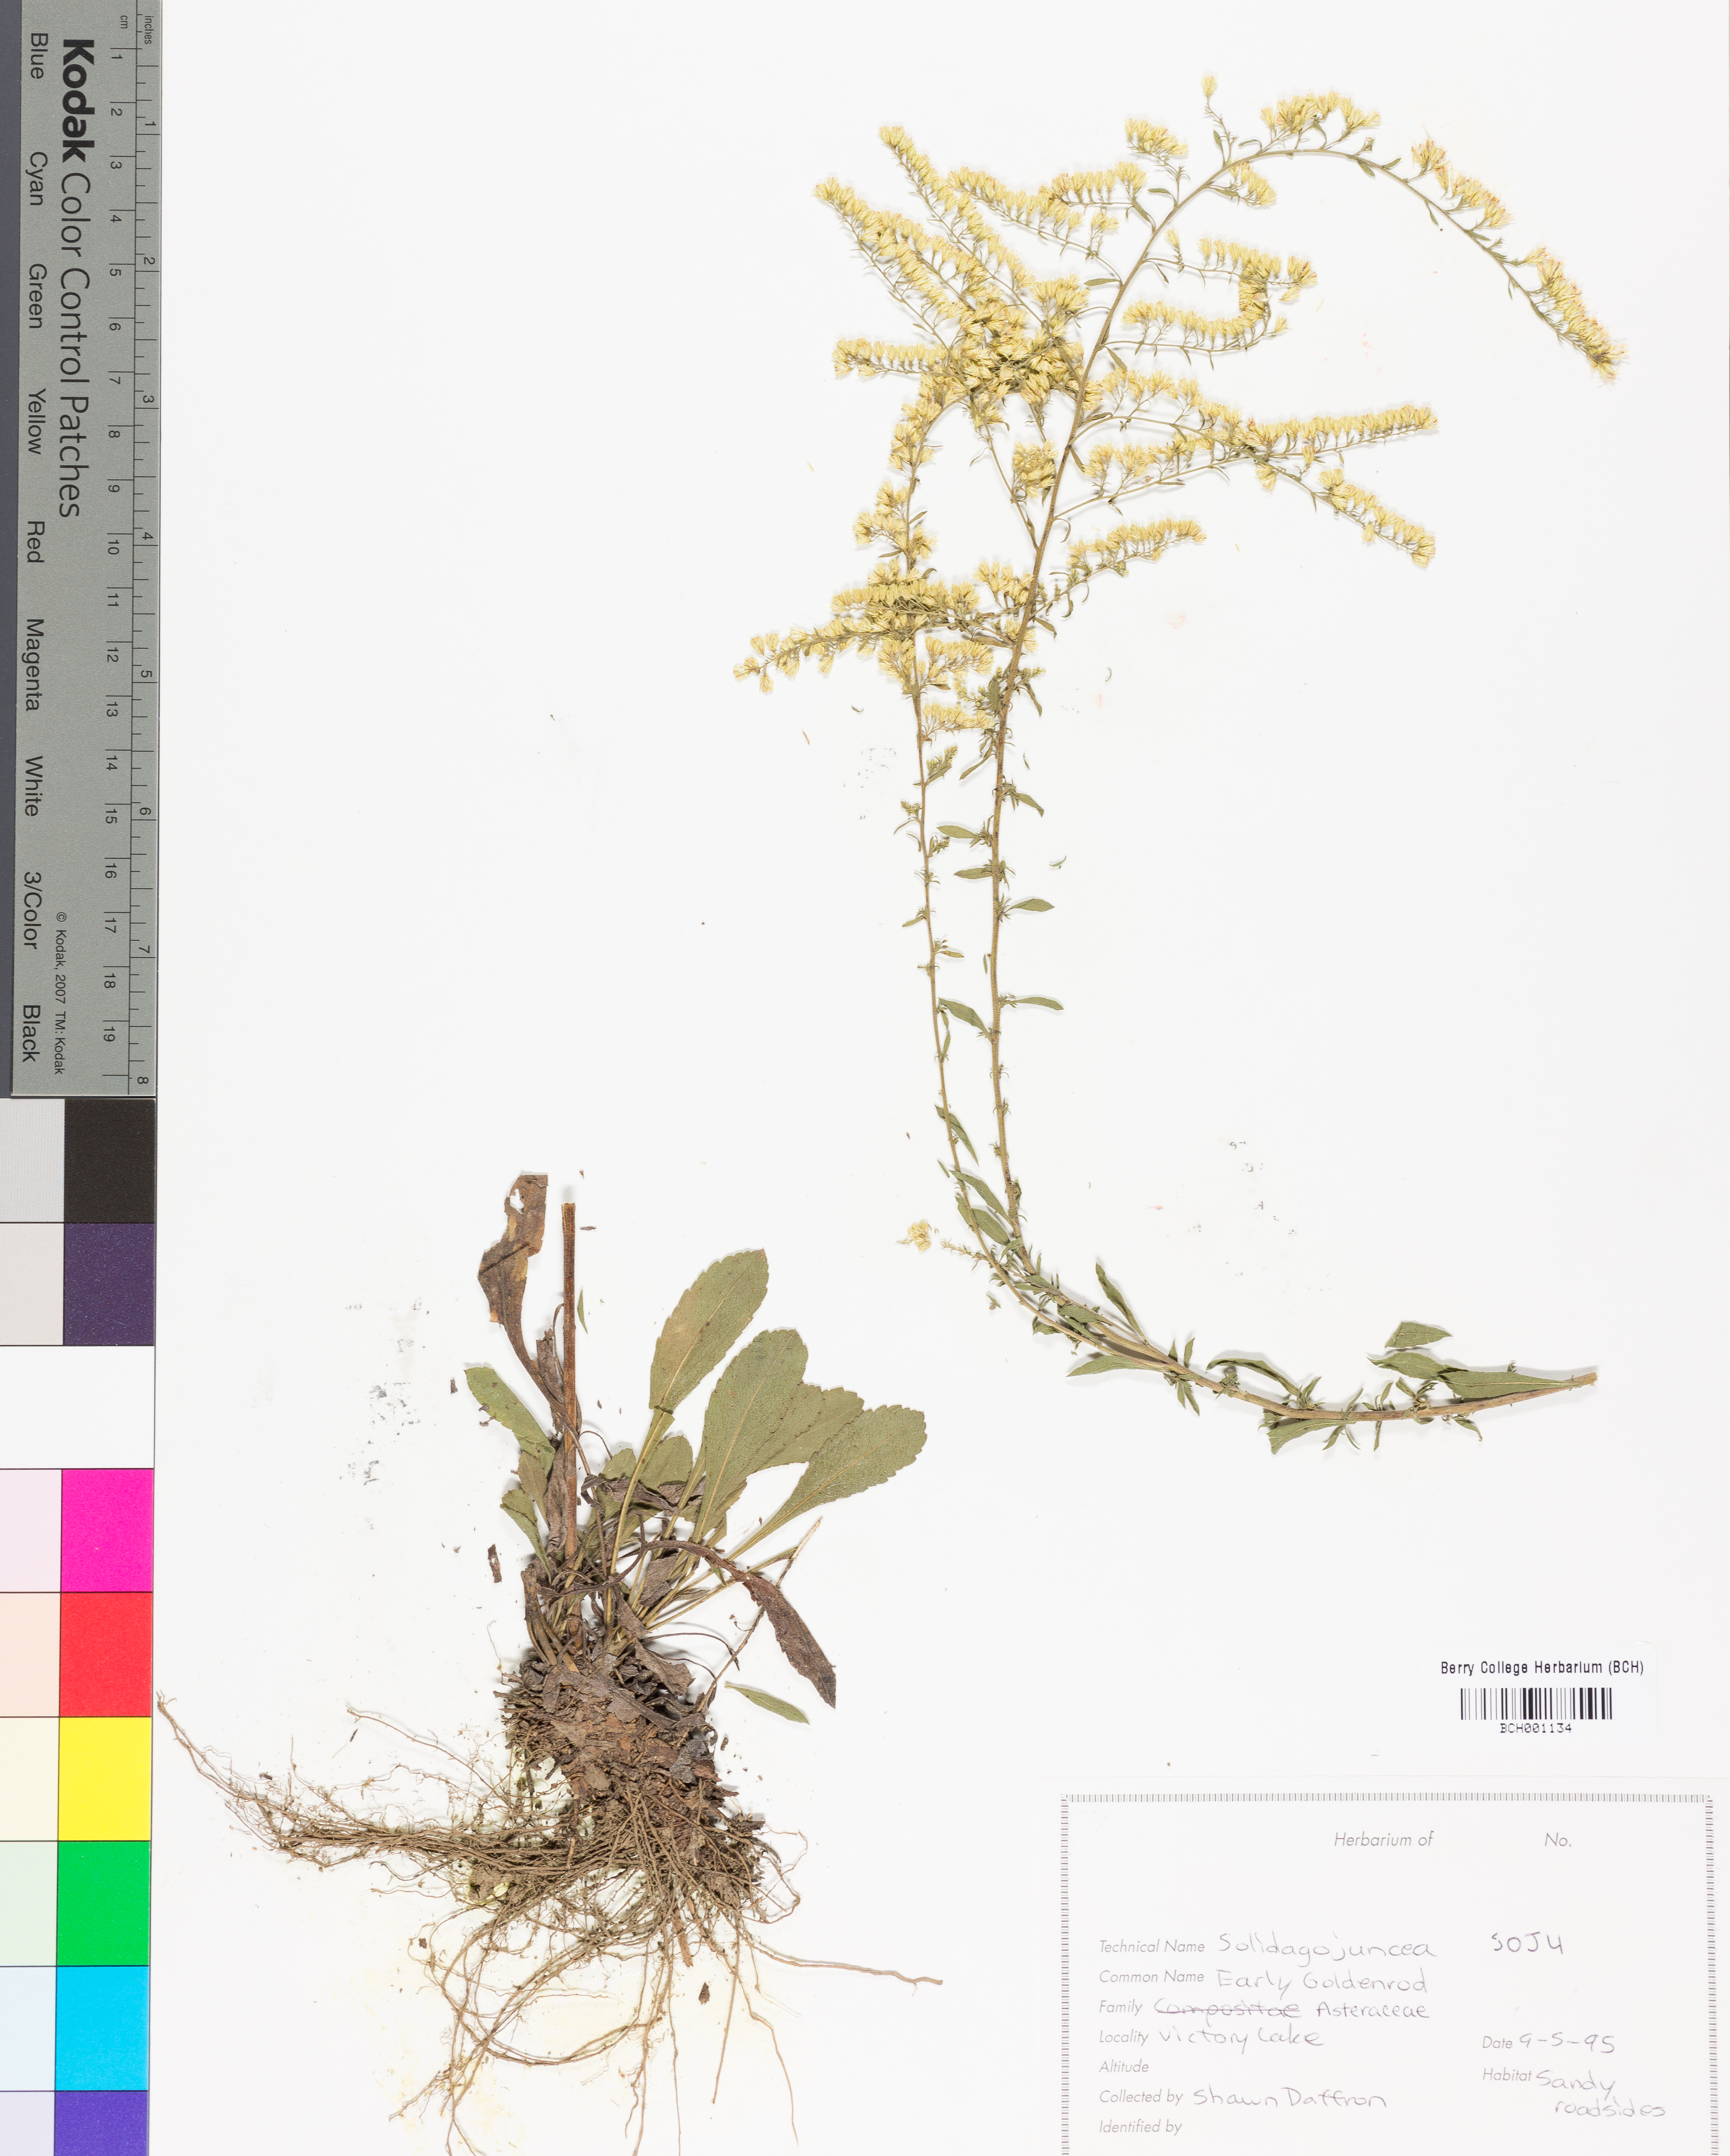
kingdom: Plantae
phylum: Tracheophyta
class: Magnoliopsida
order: Asterales
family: Asteraceae
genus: Solidago
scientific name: Solidago juncea
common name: Early goldenrod
